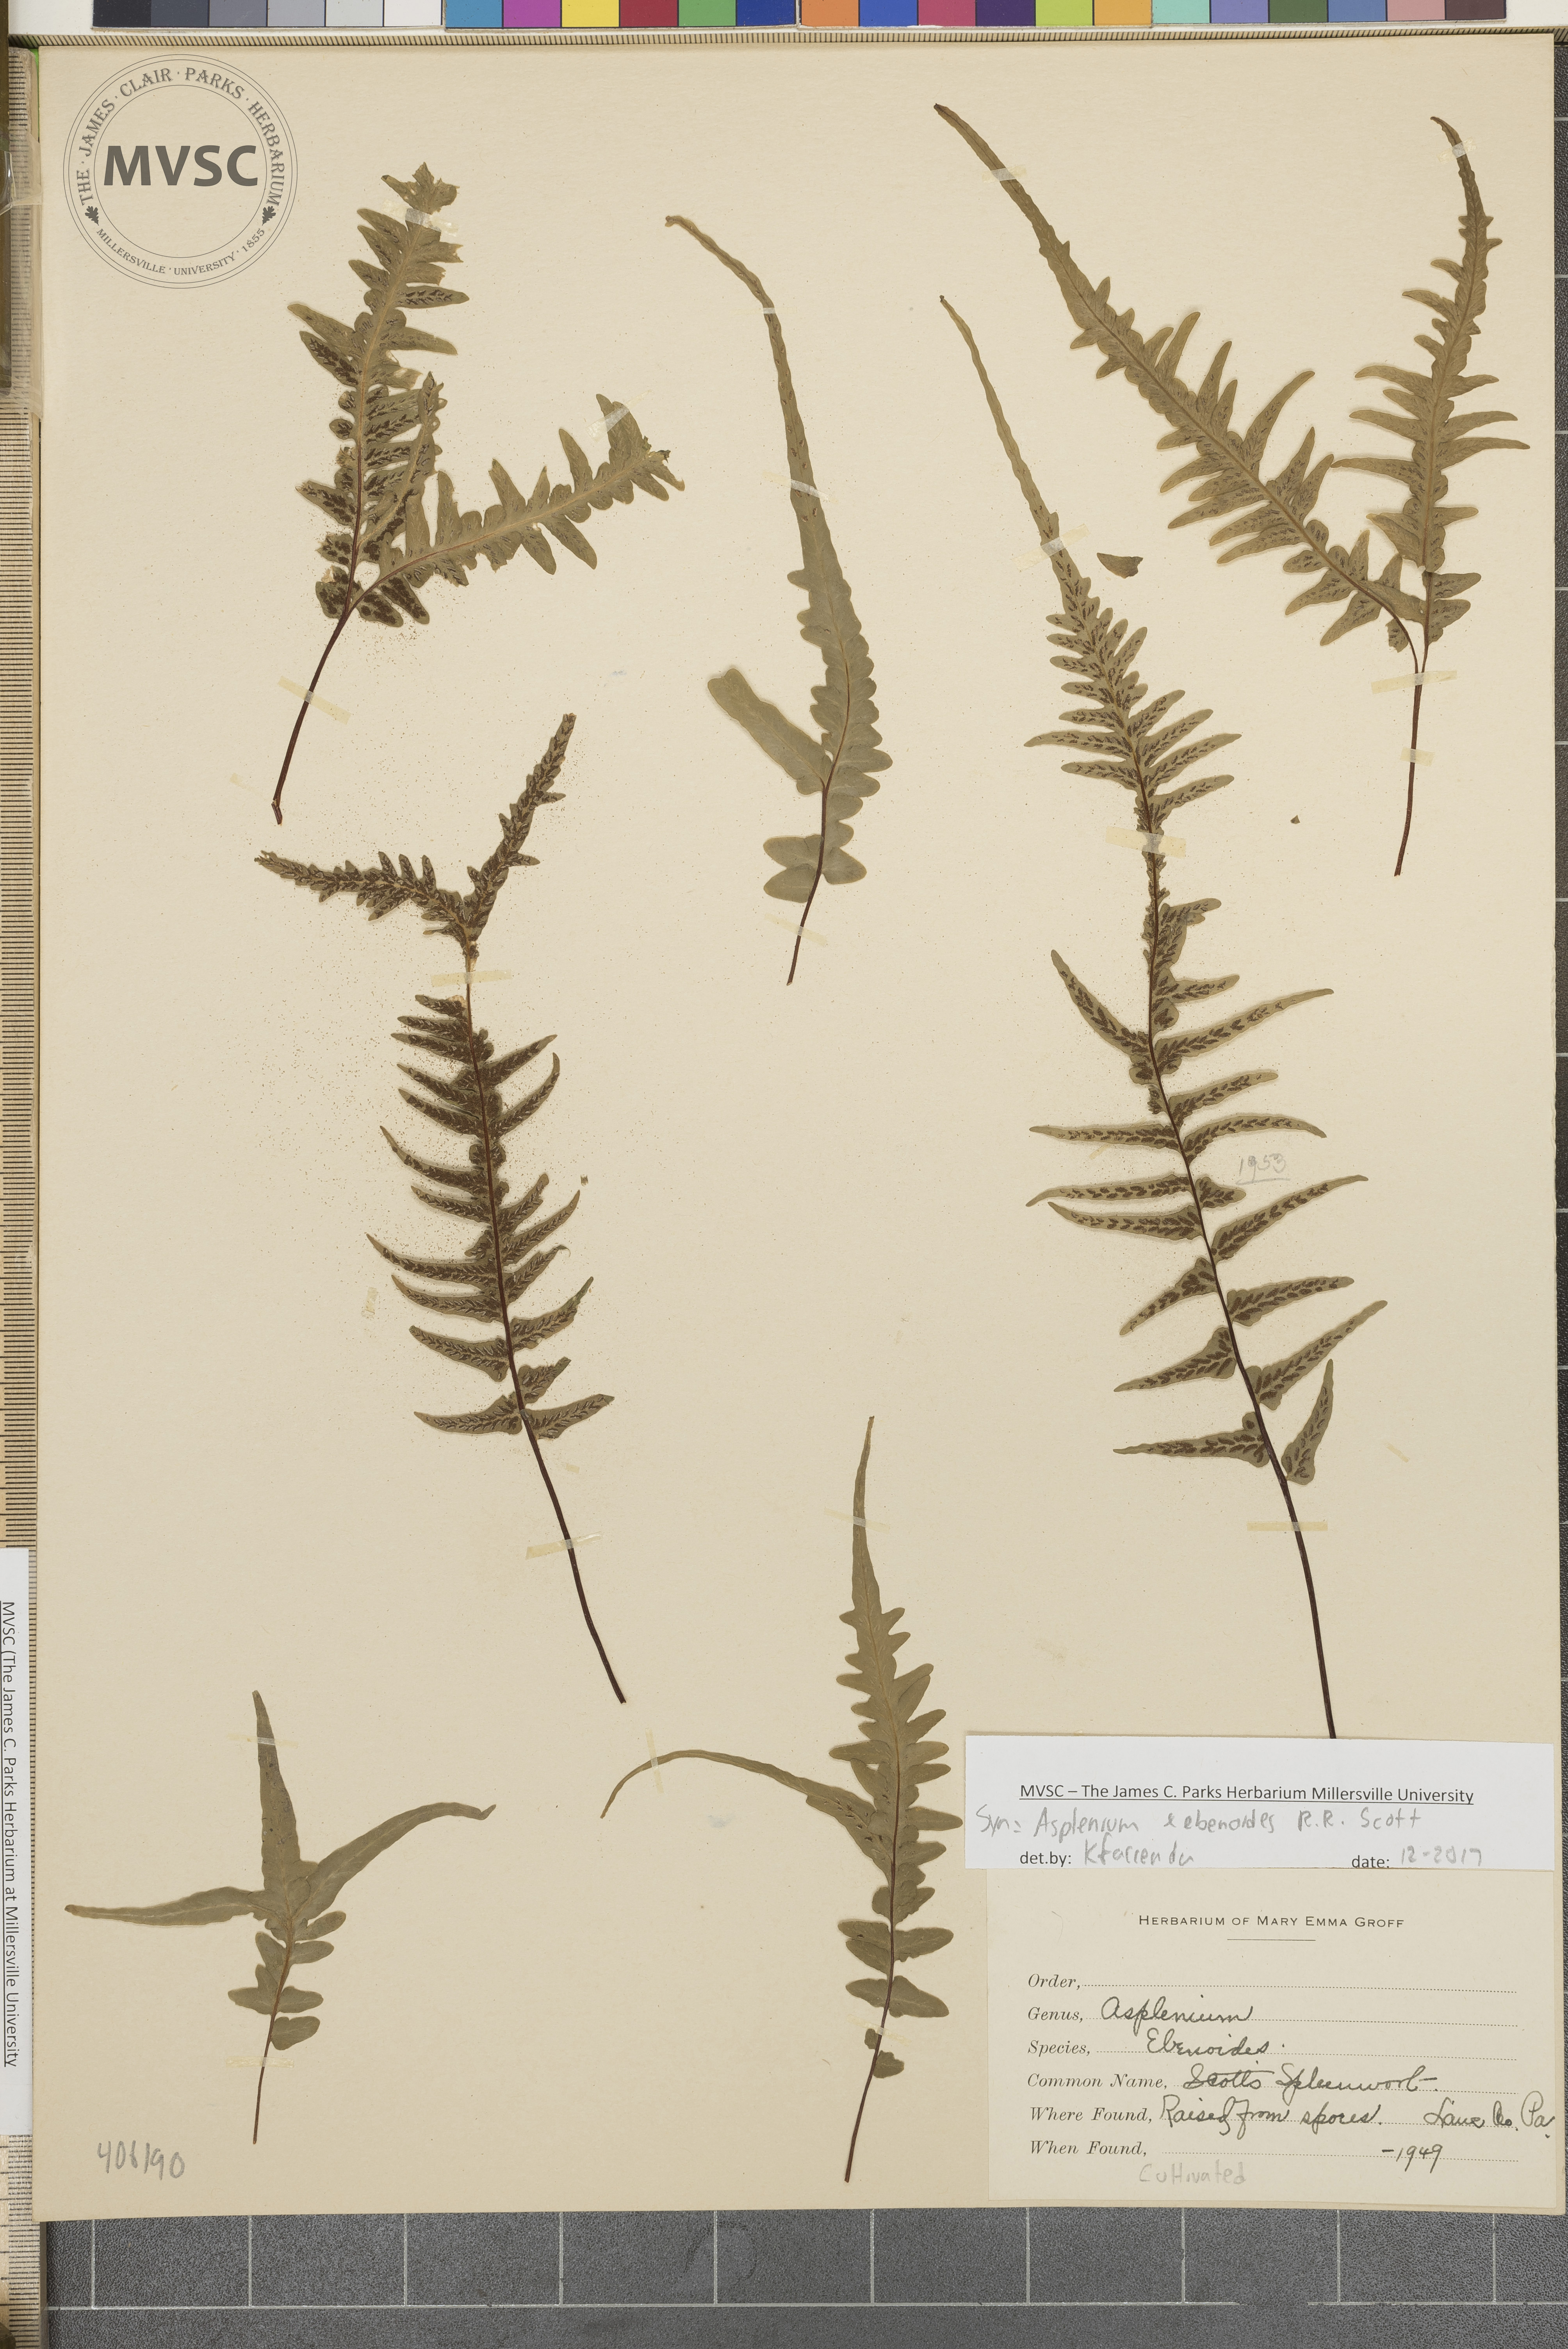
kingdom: Plantae
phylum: Tracheophyta
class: Polypodiopsida
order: Polypodiales
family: Aspleniaceae
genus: Asplenium
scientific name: Asplenium ebenoides
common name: Dragon-tail fern
